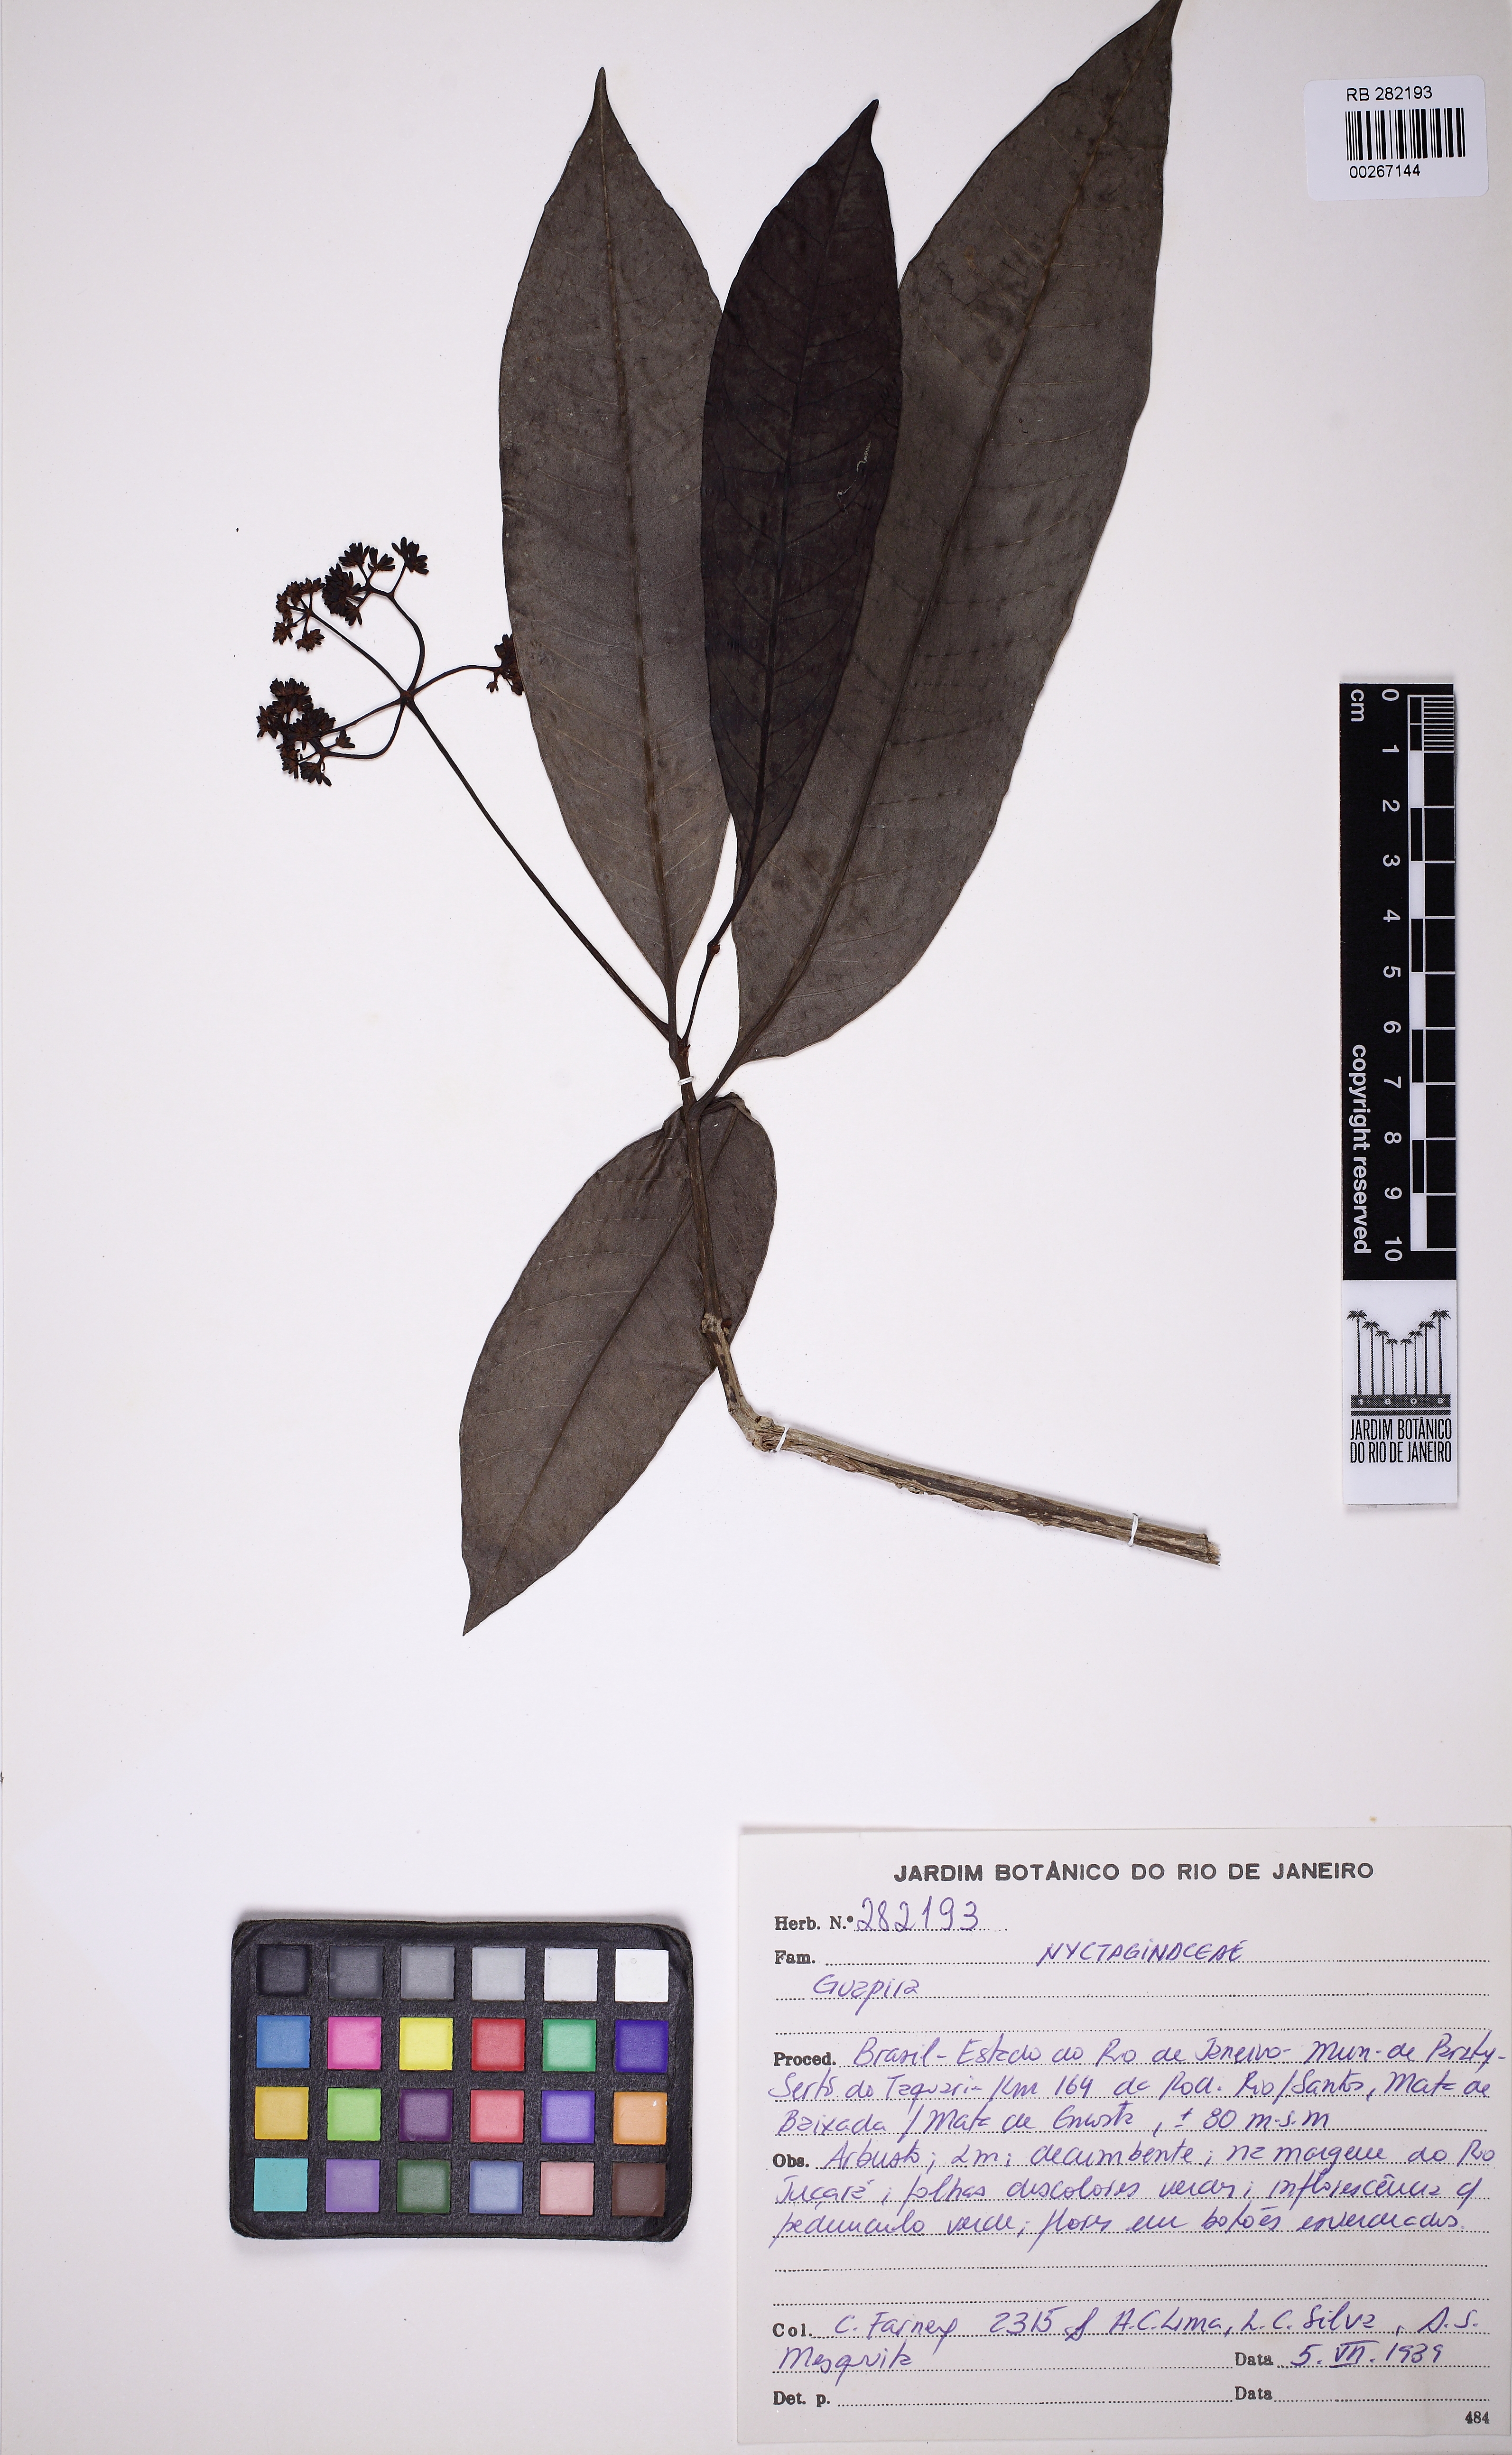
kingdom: Plantae
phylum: Tracheophyta
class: Magnoliopsida
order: Caryophyllales
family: Nyctaginaceae
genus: Guapira
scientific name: Guapira nitida
